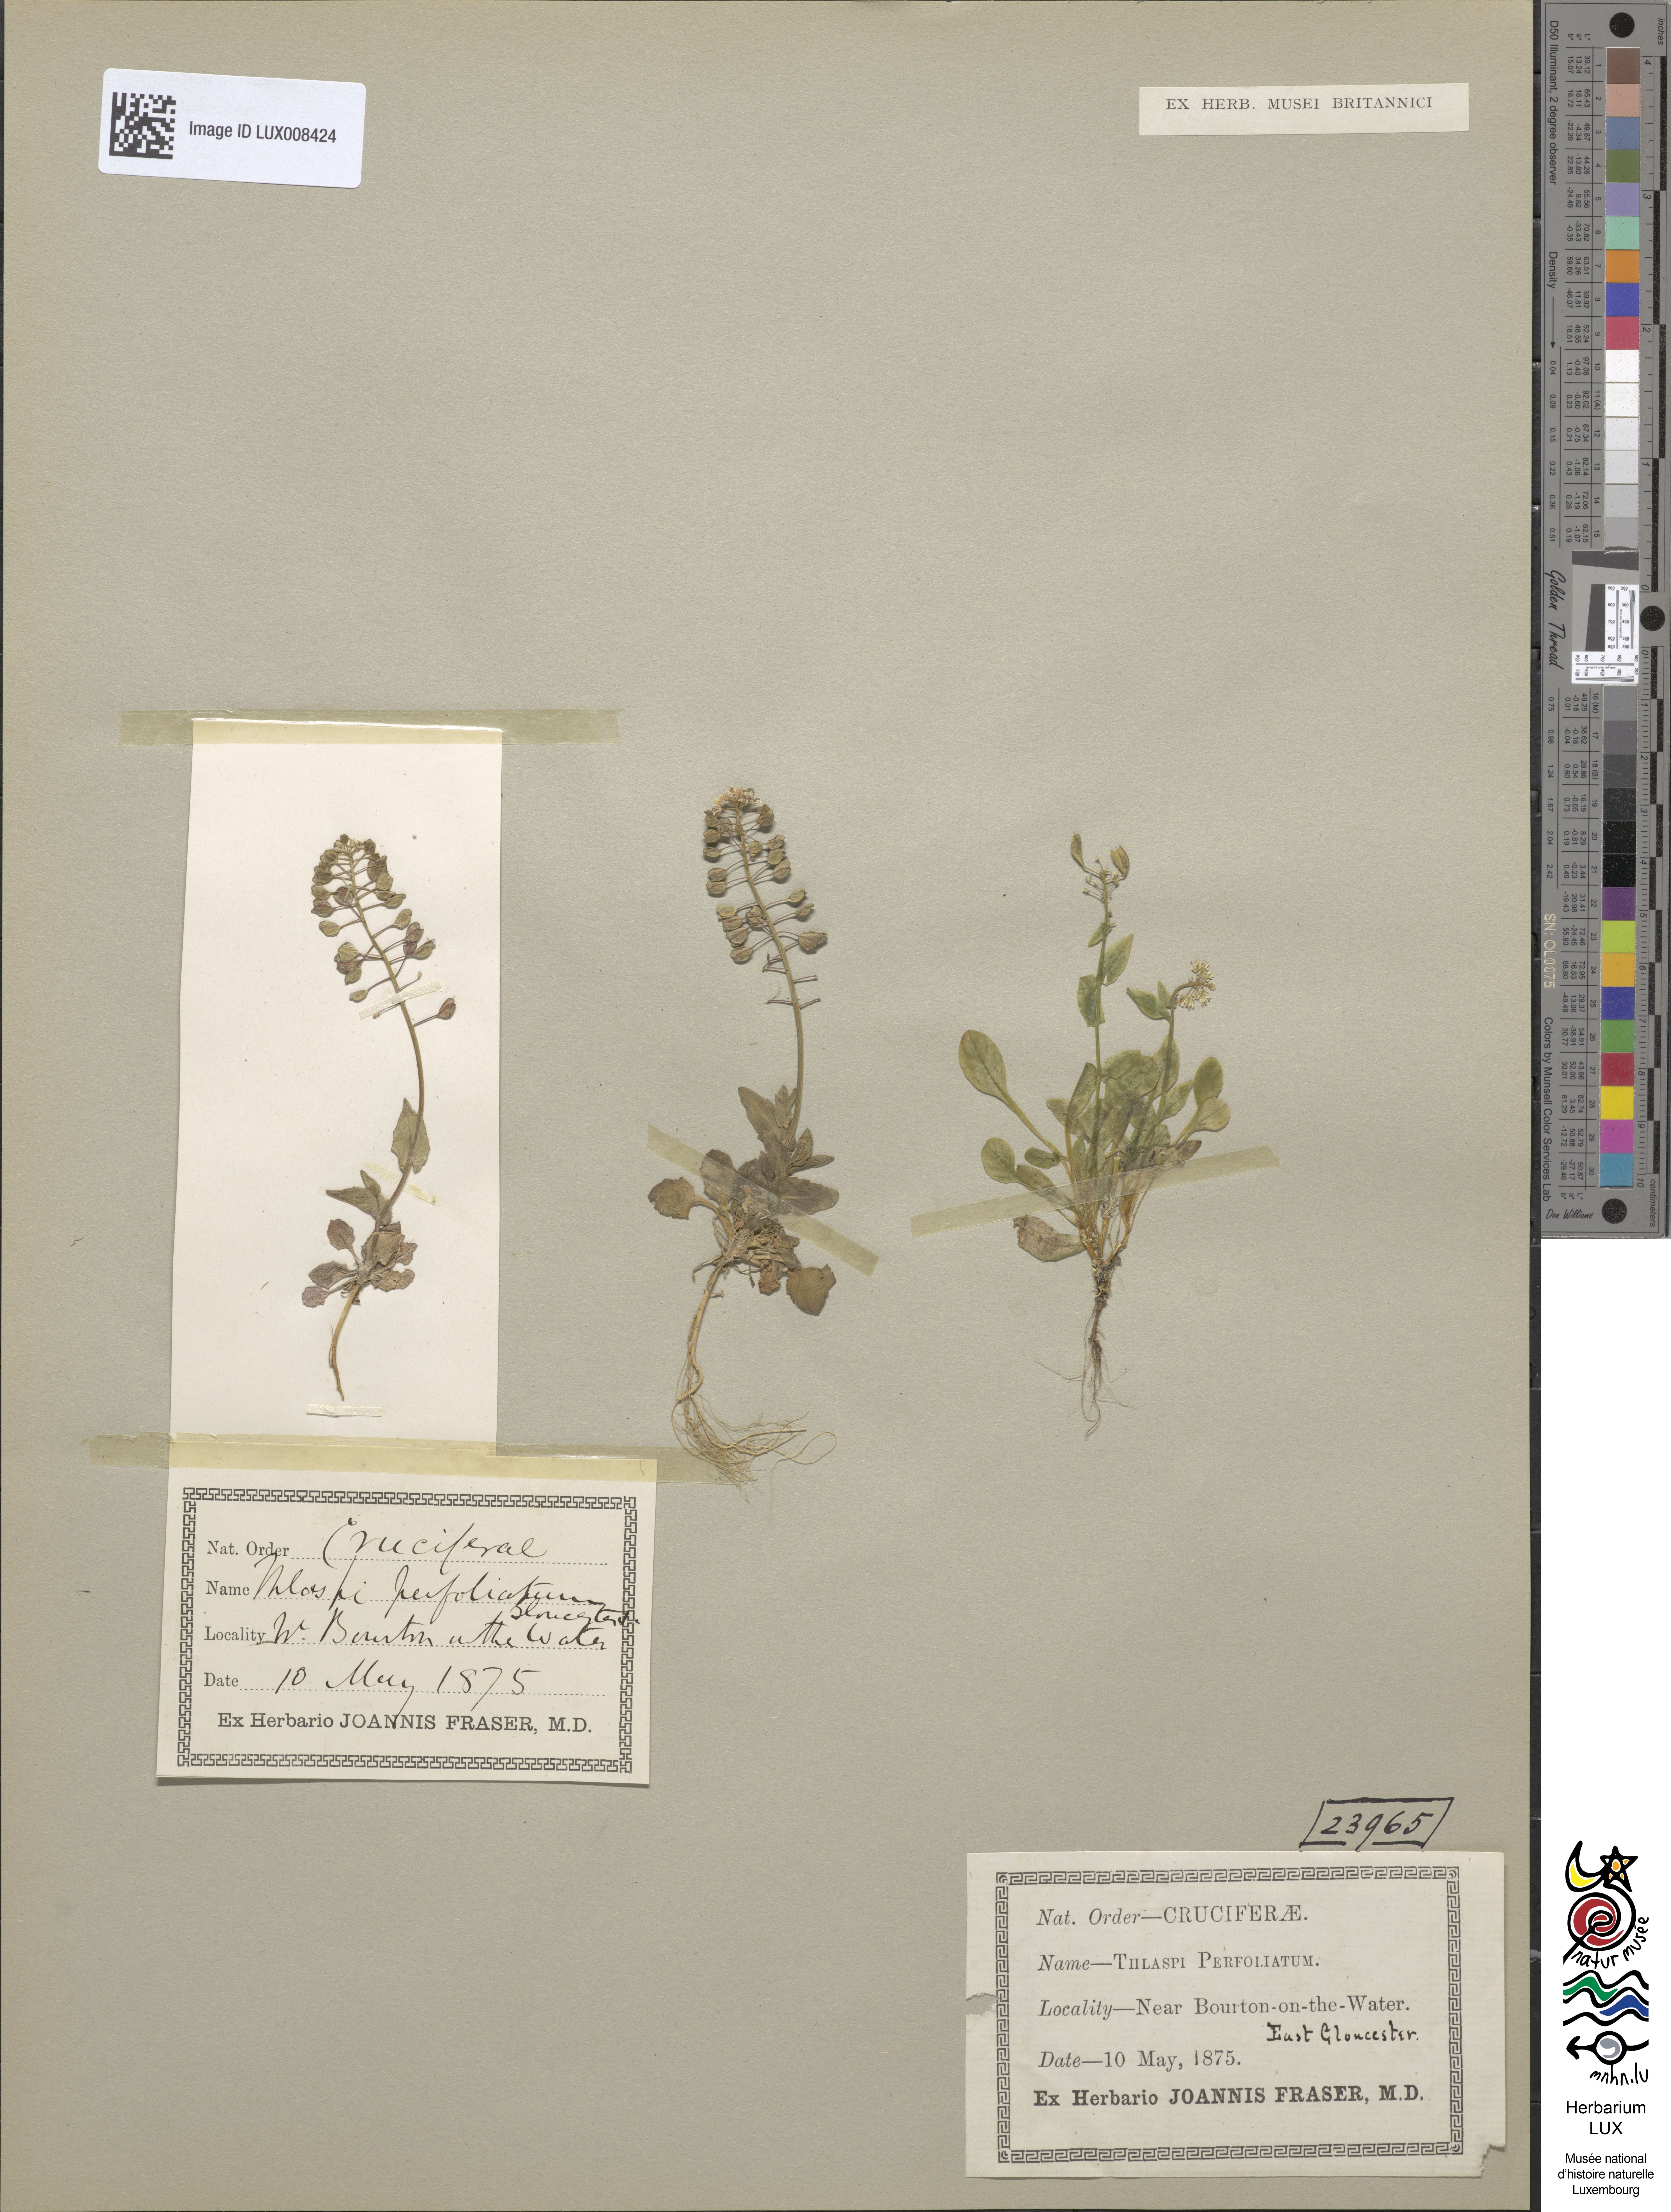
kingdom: Plantae
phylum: Tracheophyta
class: Magnoliopsida
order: Brassicales
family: Brassicaceae
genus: Noccaea
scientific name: Noccaea perfoliata
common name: Perfoliate pennycress
